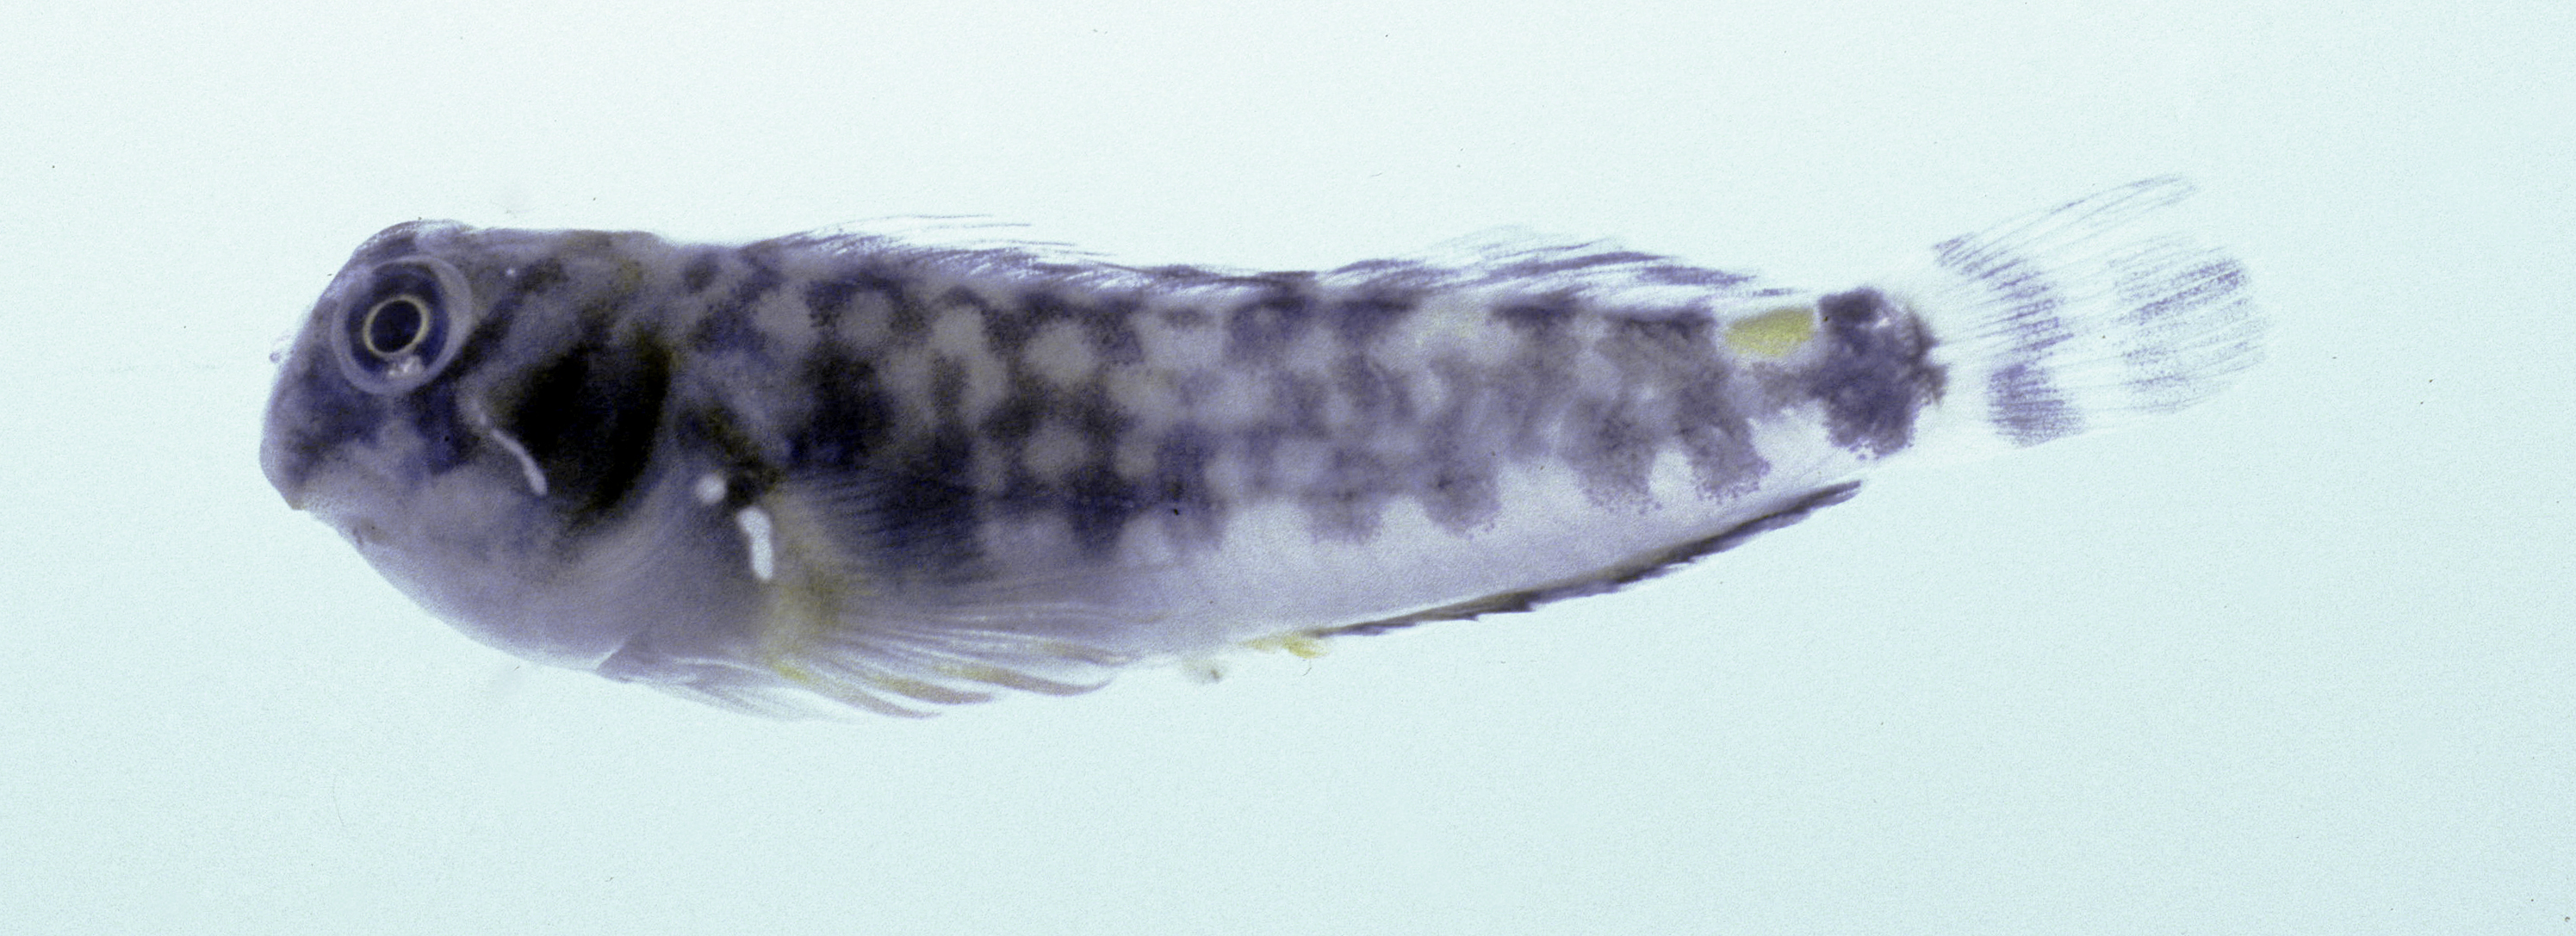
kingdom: Animalia
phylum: Chordata
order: Perciformes
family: Blenniidae
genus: Stanulus
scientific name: Stanulus seychellensis
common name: Seychelles blenny
